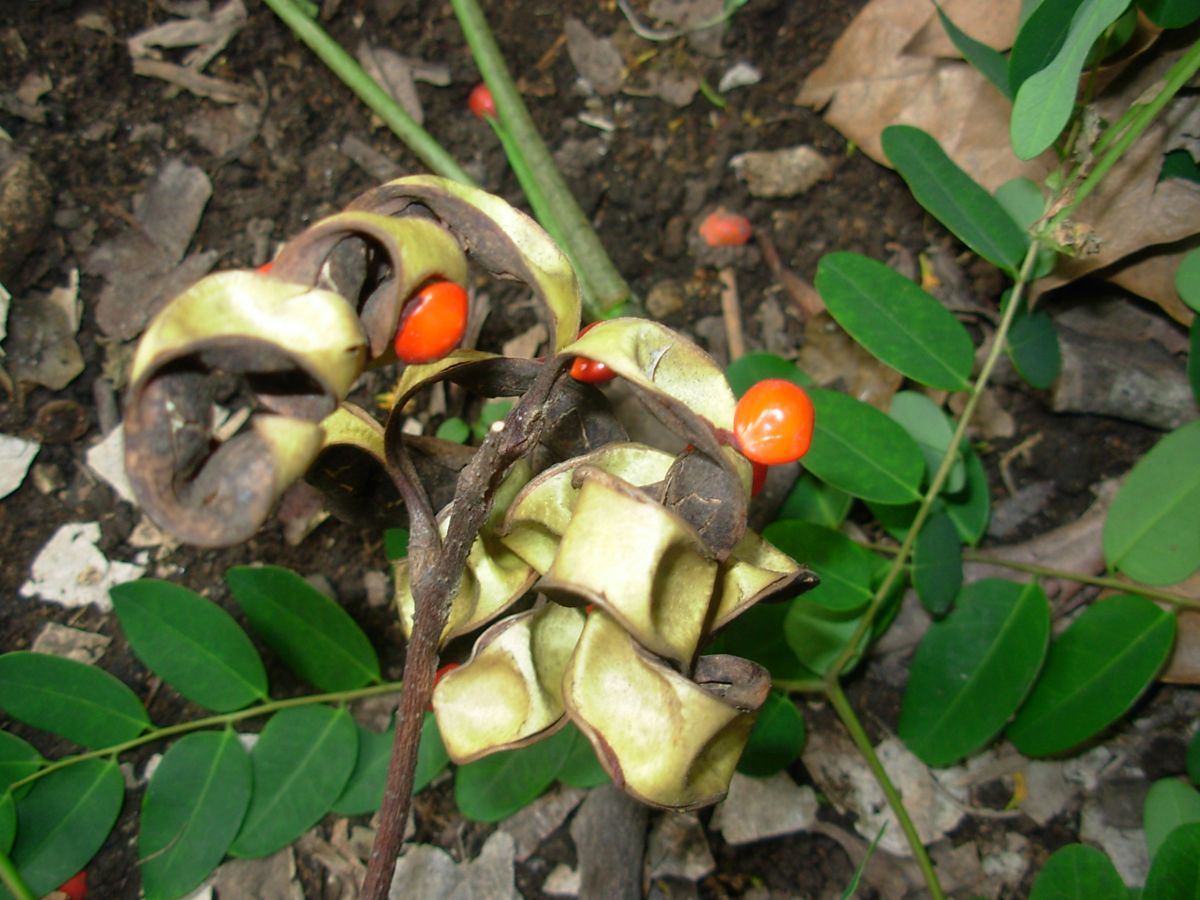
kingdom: Plantae
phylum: Tracheophyta
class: Magnoliopsida
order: Fabales
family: Fabaceae
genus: Adenanthera
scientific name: Adenanthera pavonina
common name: Red beadtree
